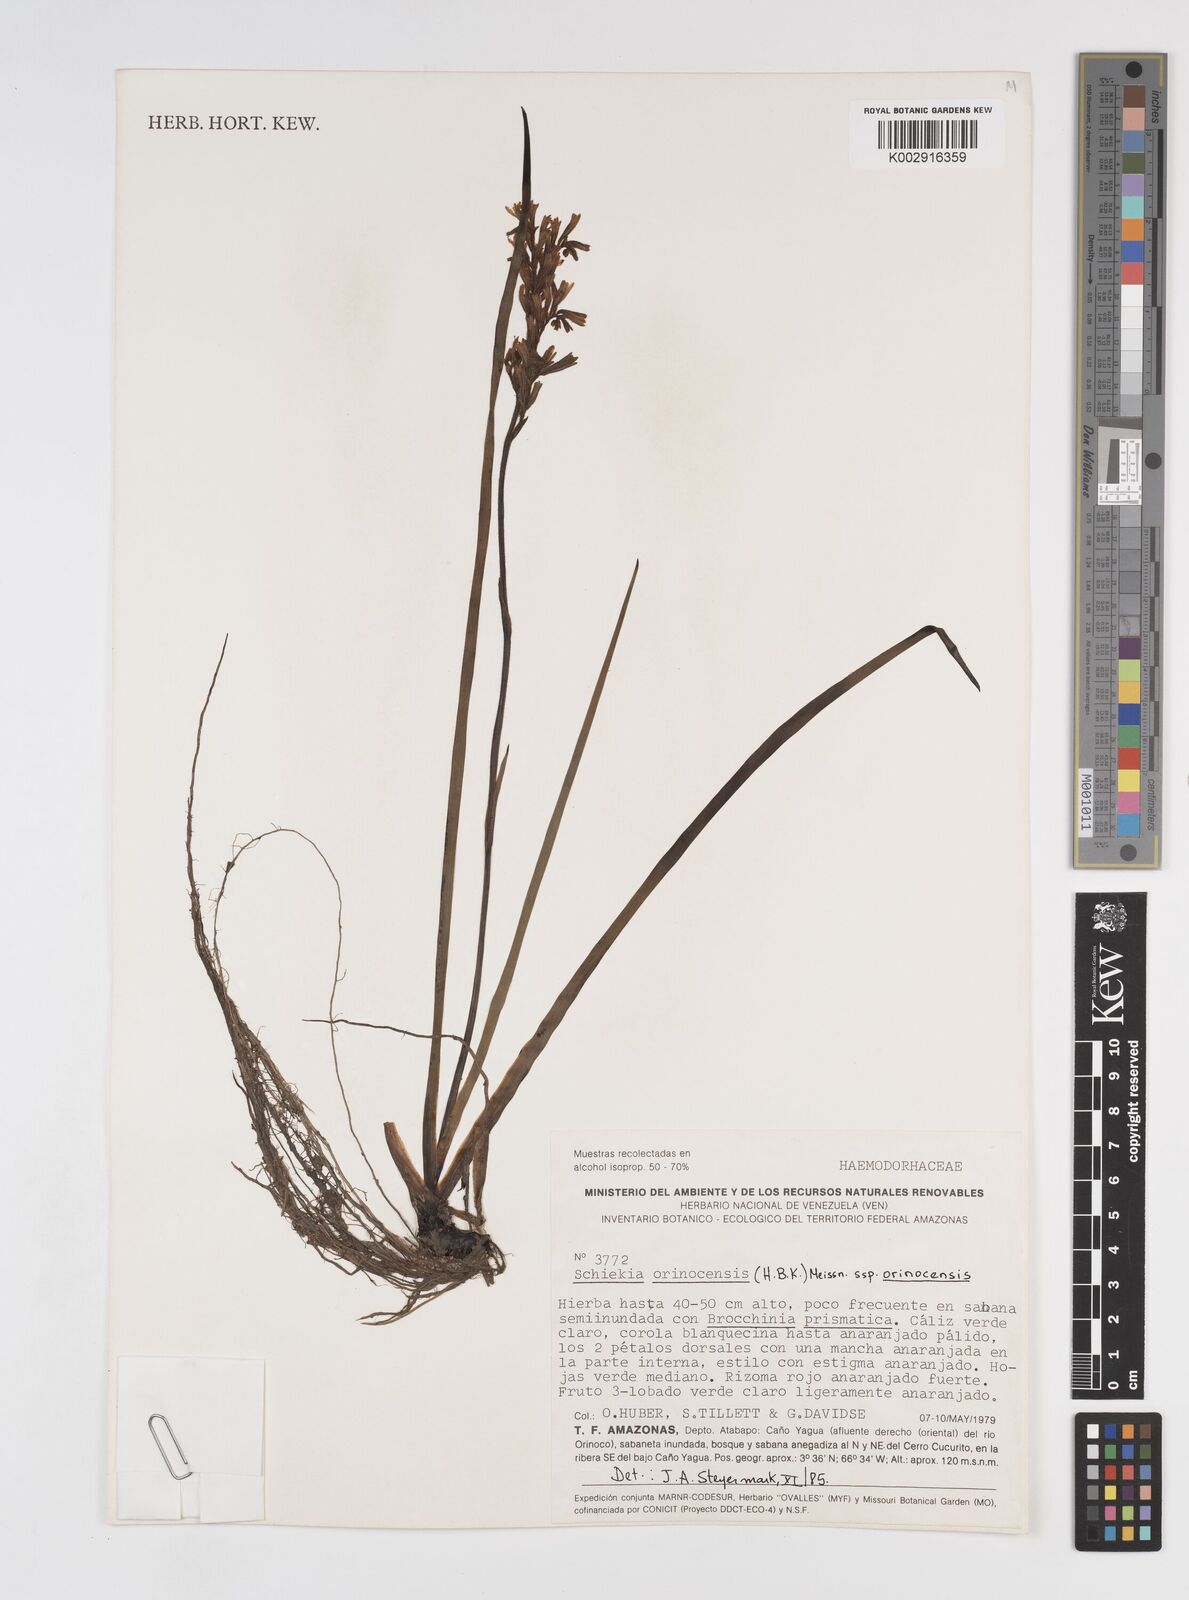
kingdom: Plantae
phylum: Tracheophyta
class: Liliopsida
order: Commelinales
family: Haemodoraceae
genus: Schiekia
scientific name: Schiekia orinocensis
